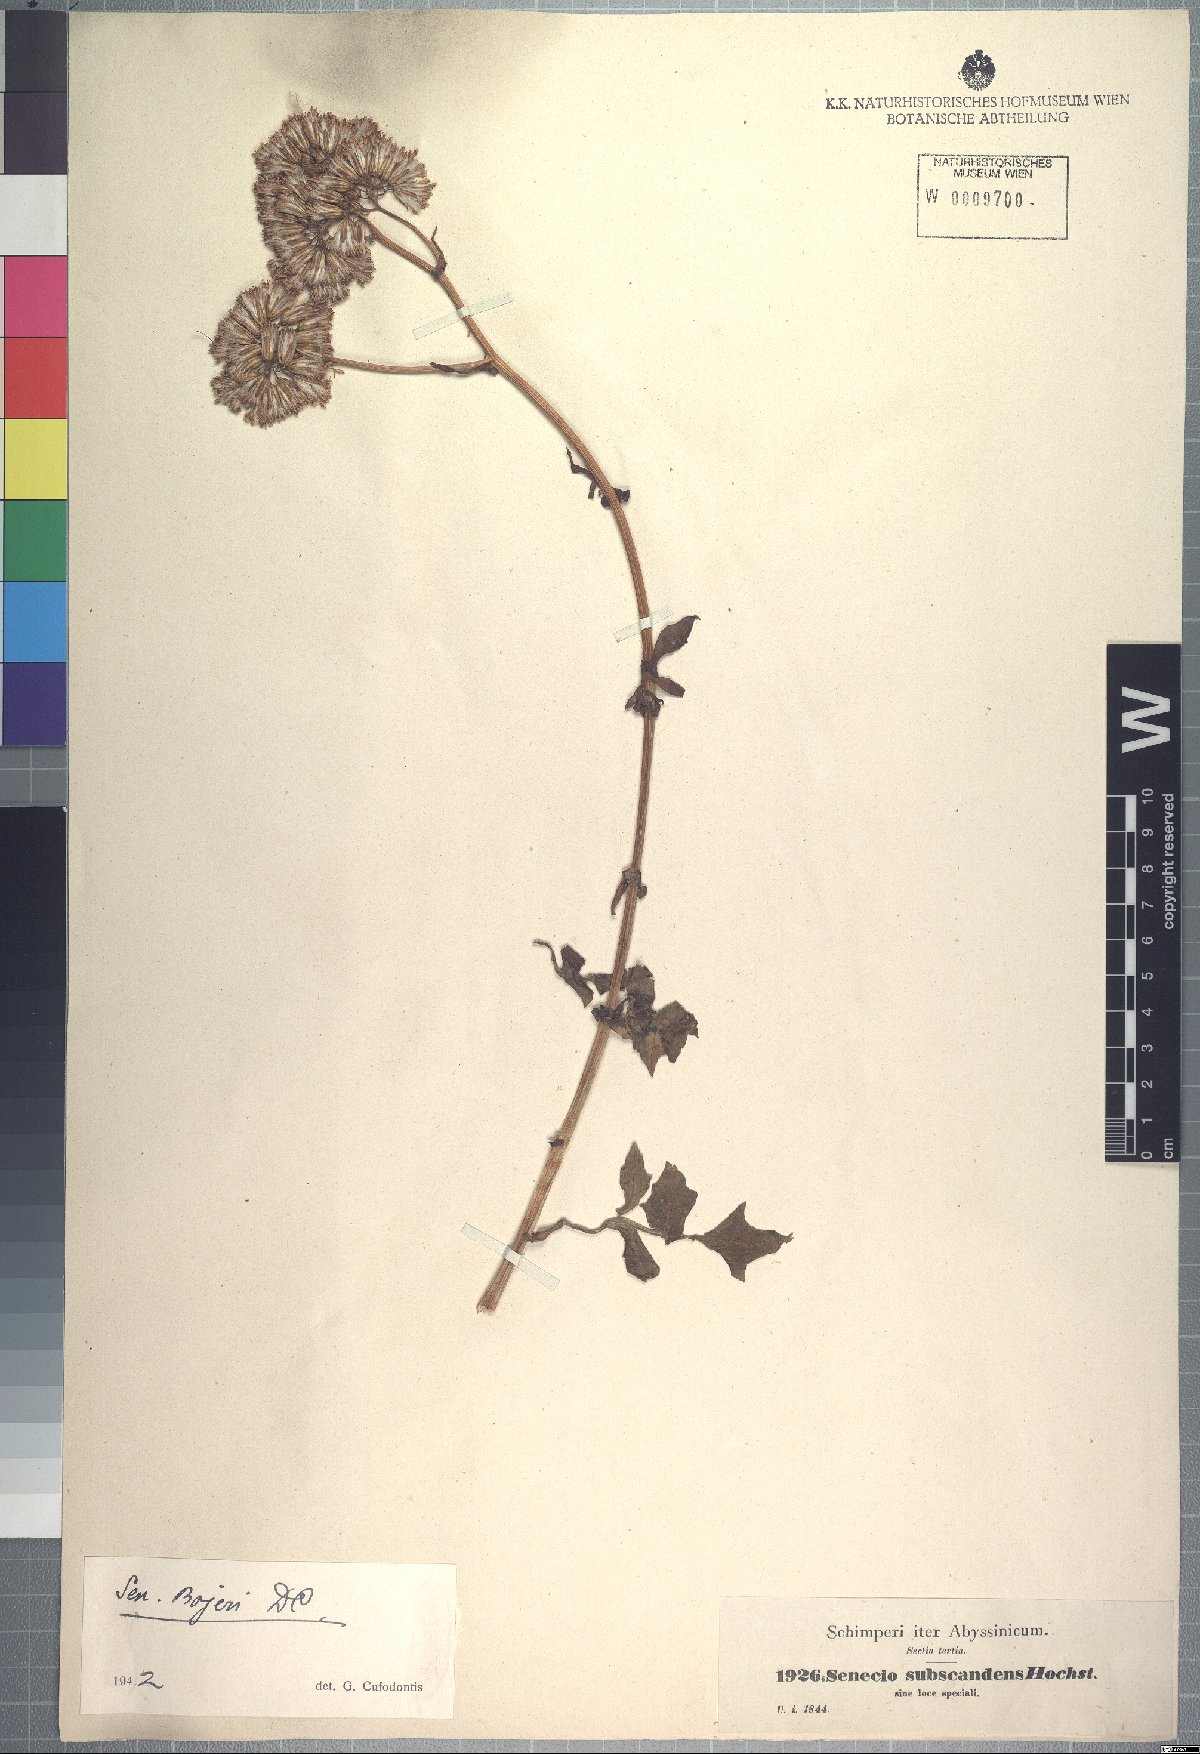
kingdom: Plantae
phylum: Tracheophyta
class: Magnoliopsida
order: Asterales
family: Asteraceae
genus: Solanecio
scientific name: Solanecio angulatus
